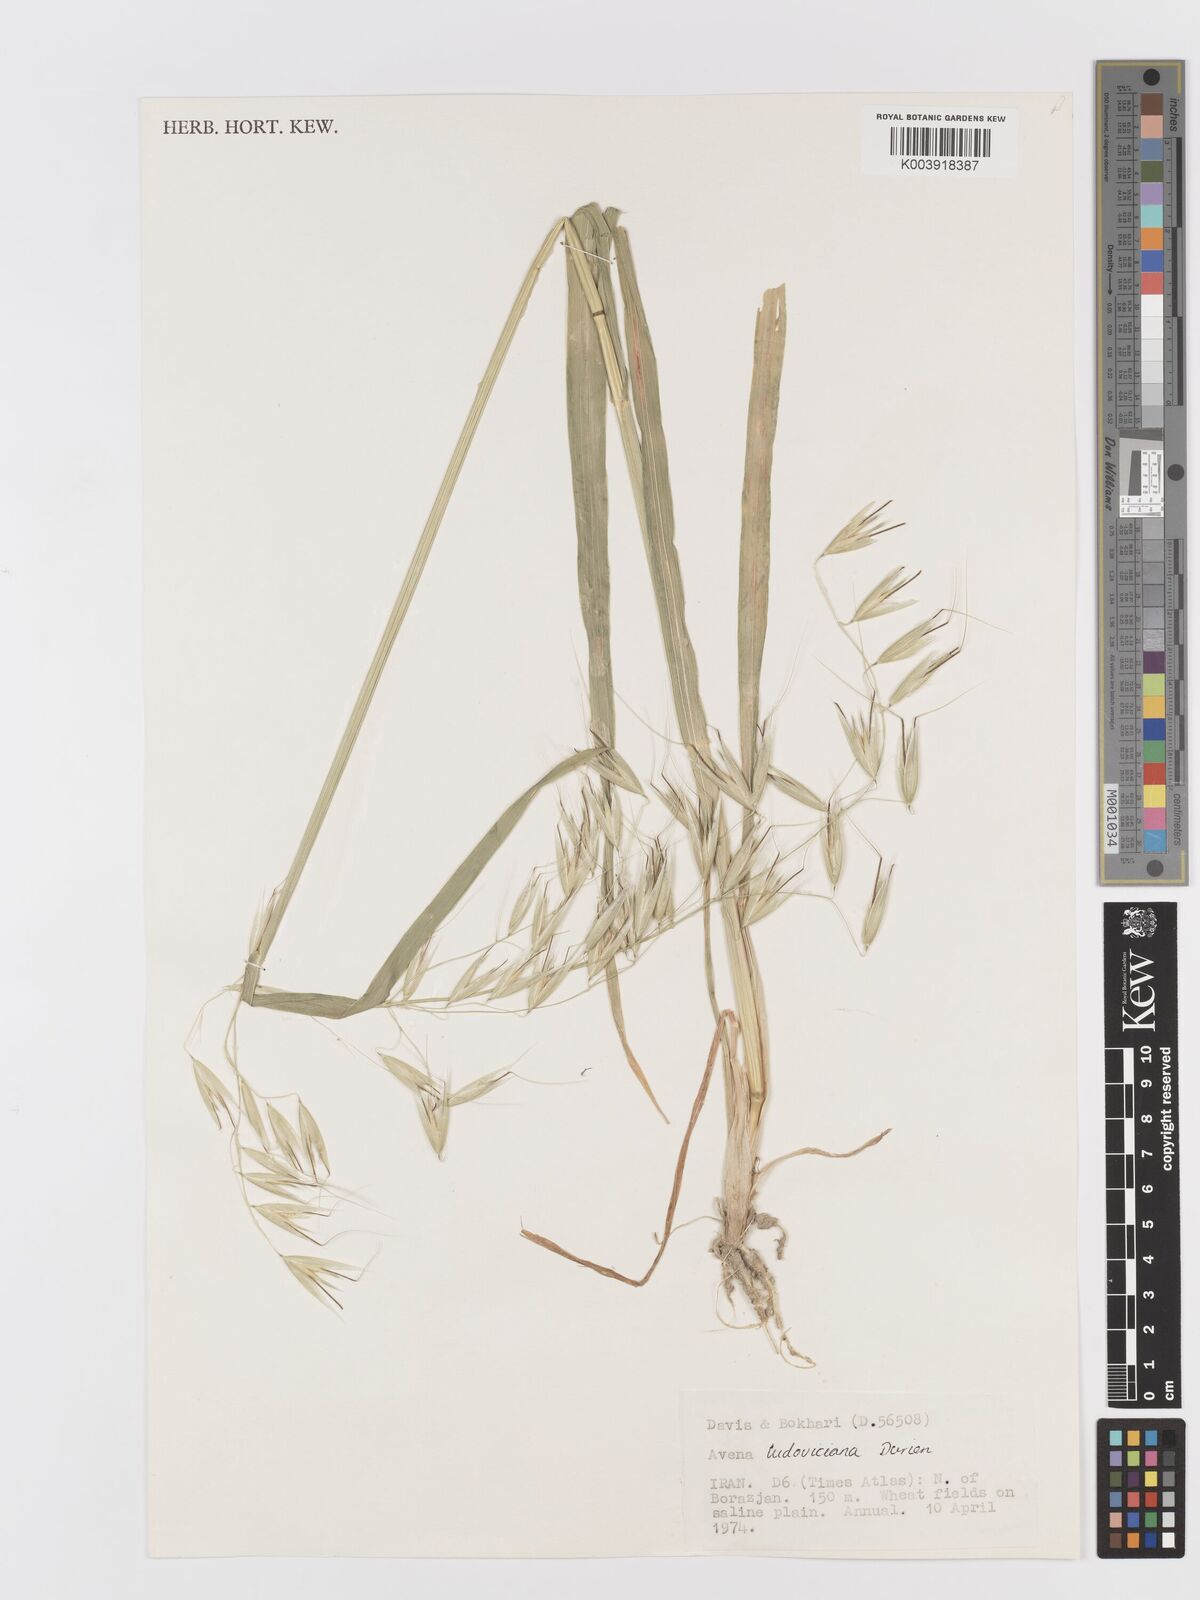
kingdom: Plantae
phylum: Tracheophyta
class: Liliopsida
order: Poales
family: Poaceae
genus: Avena
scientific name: Avena sterilis
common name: Animated oat
